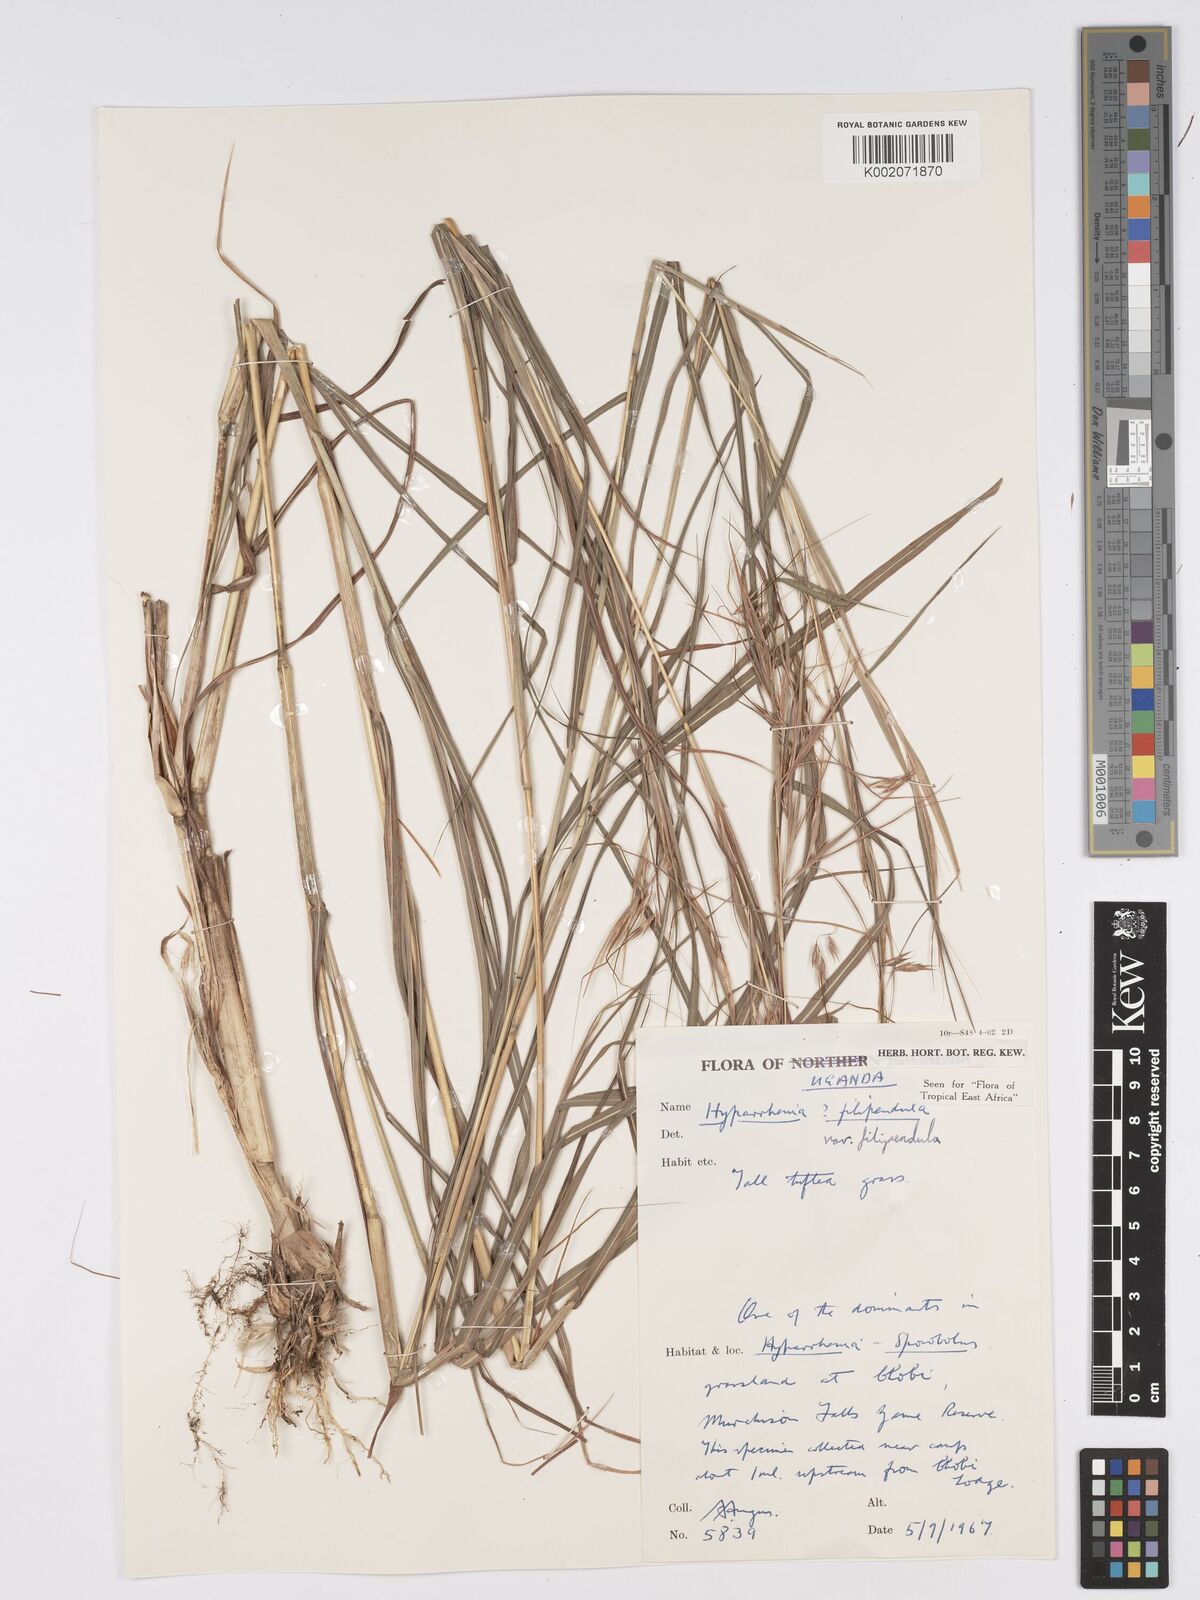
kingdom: Plantae
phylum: Tracheophyta
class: Liliopsida
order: Poales
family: Poaceae
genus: Hyparrhenia
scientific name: Hyparrhenia filipendula
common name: Tambookie grass
